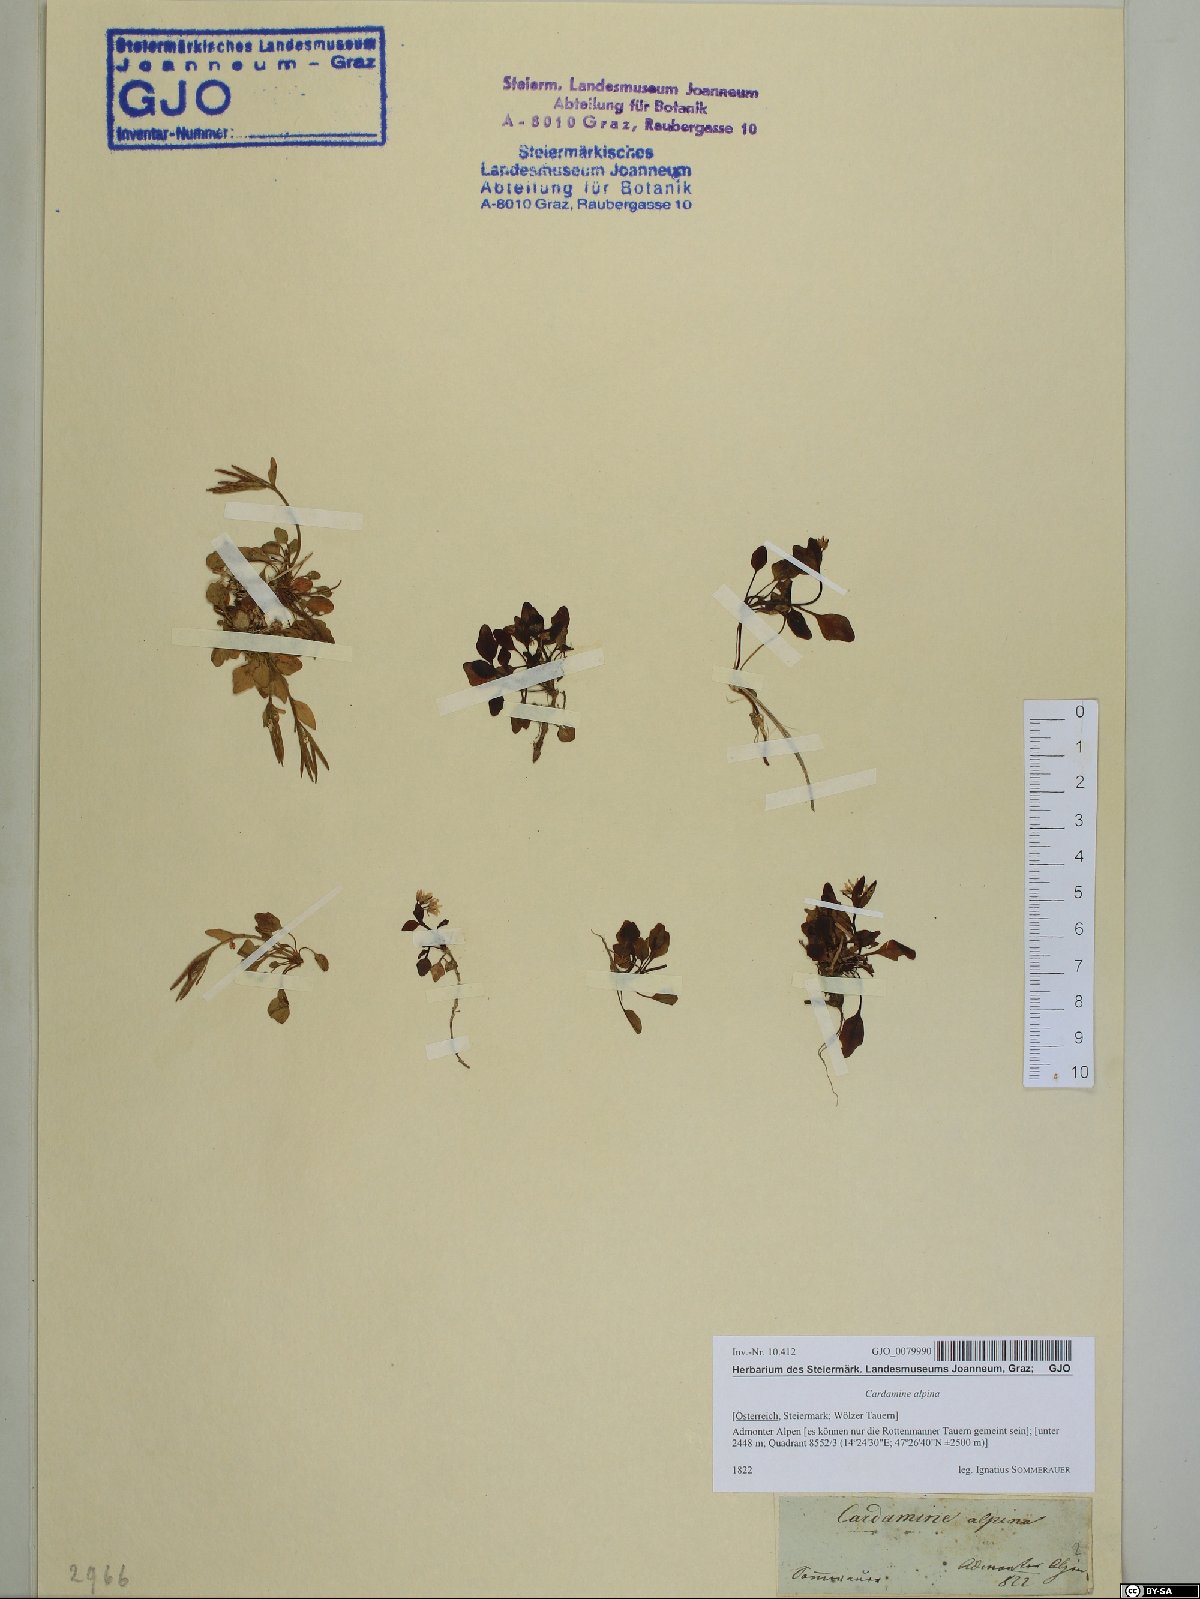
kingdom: Plantae
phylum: Tracheophyta
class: Magnoliopsida
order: Brassicales
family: Brassicaceae
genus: Cardamine
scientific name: Cardamine bellidifolia
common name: Alpine bittercress
